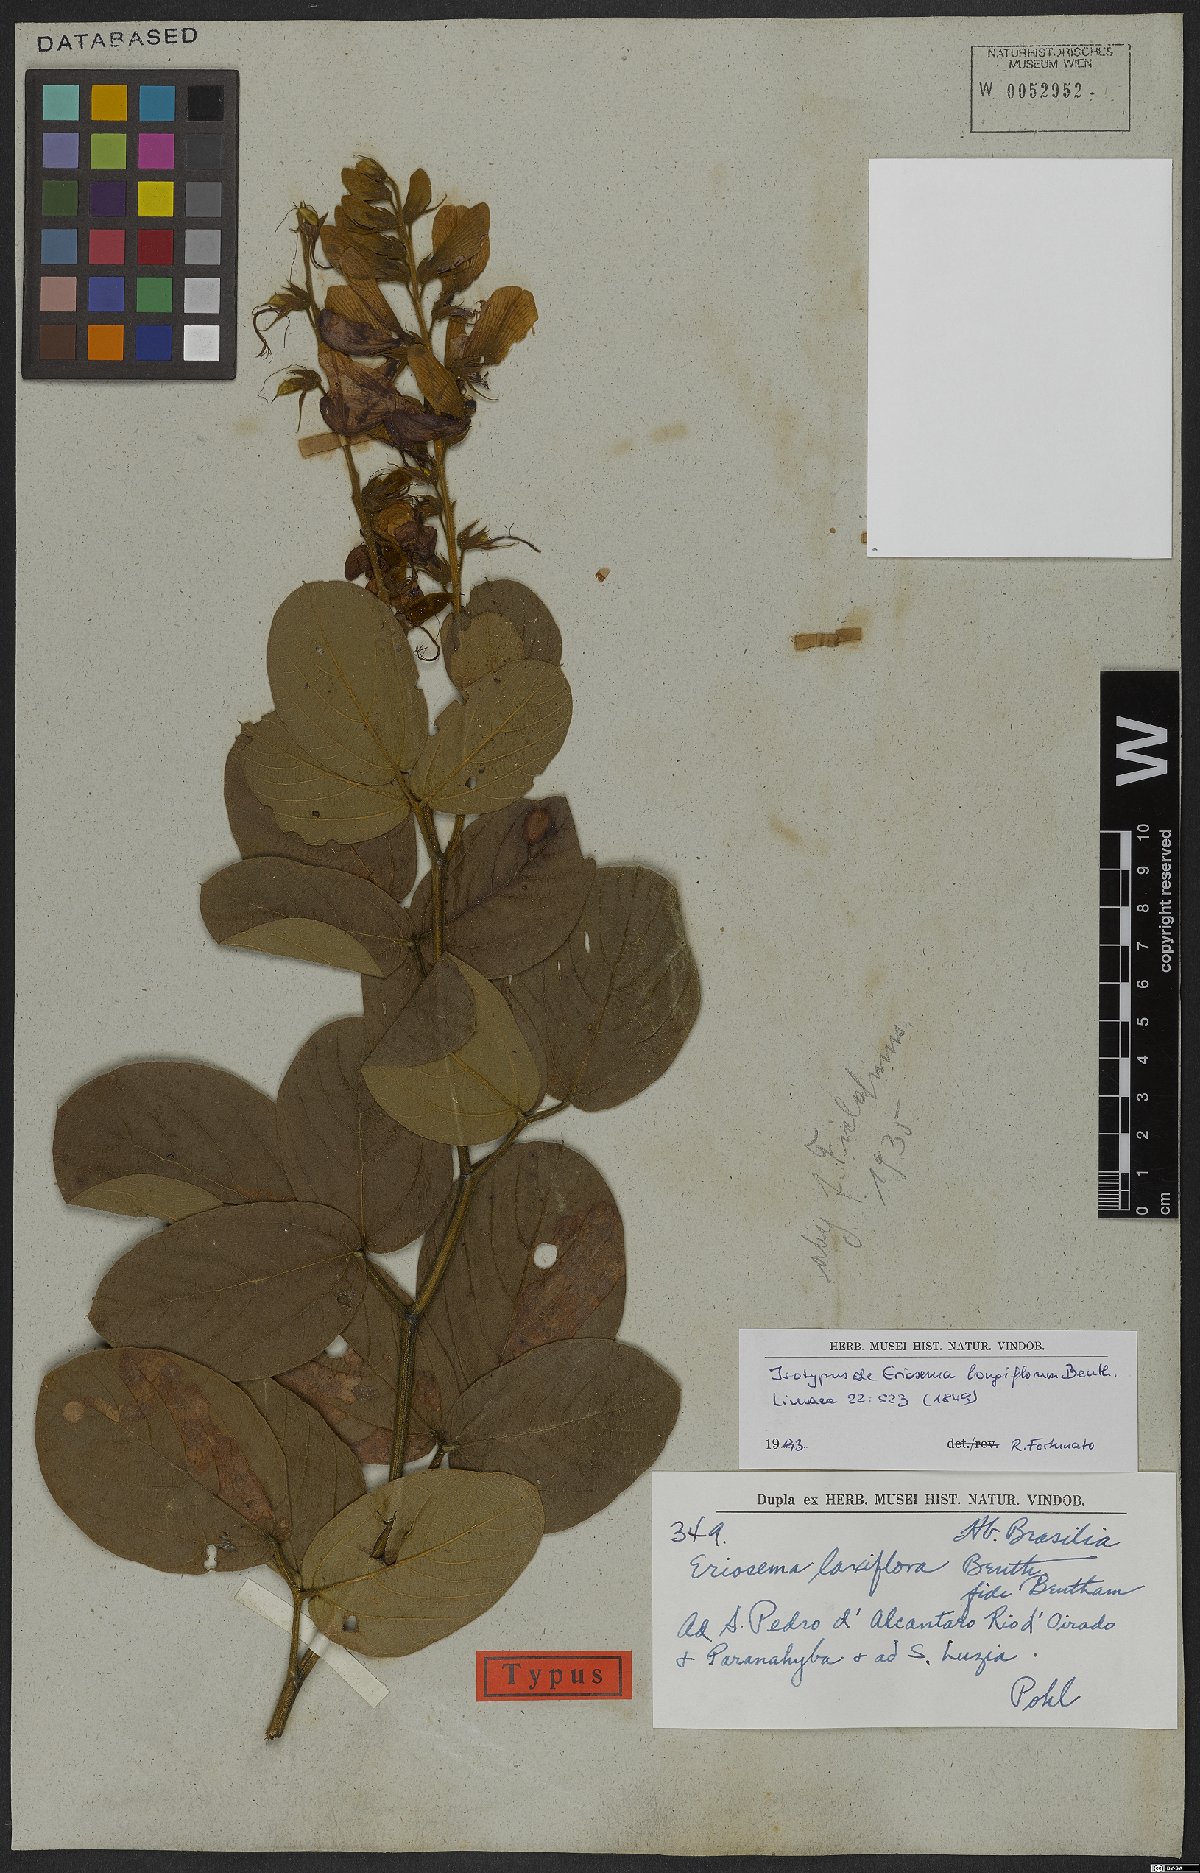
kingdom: Plantae
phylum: Tracheophyta
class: Magnoliopsida
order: Fabales
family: Fabaceae
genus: Eriosema
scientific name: Eriosema longiflorum
